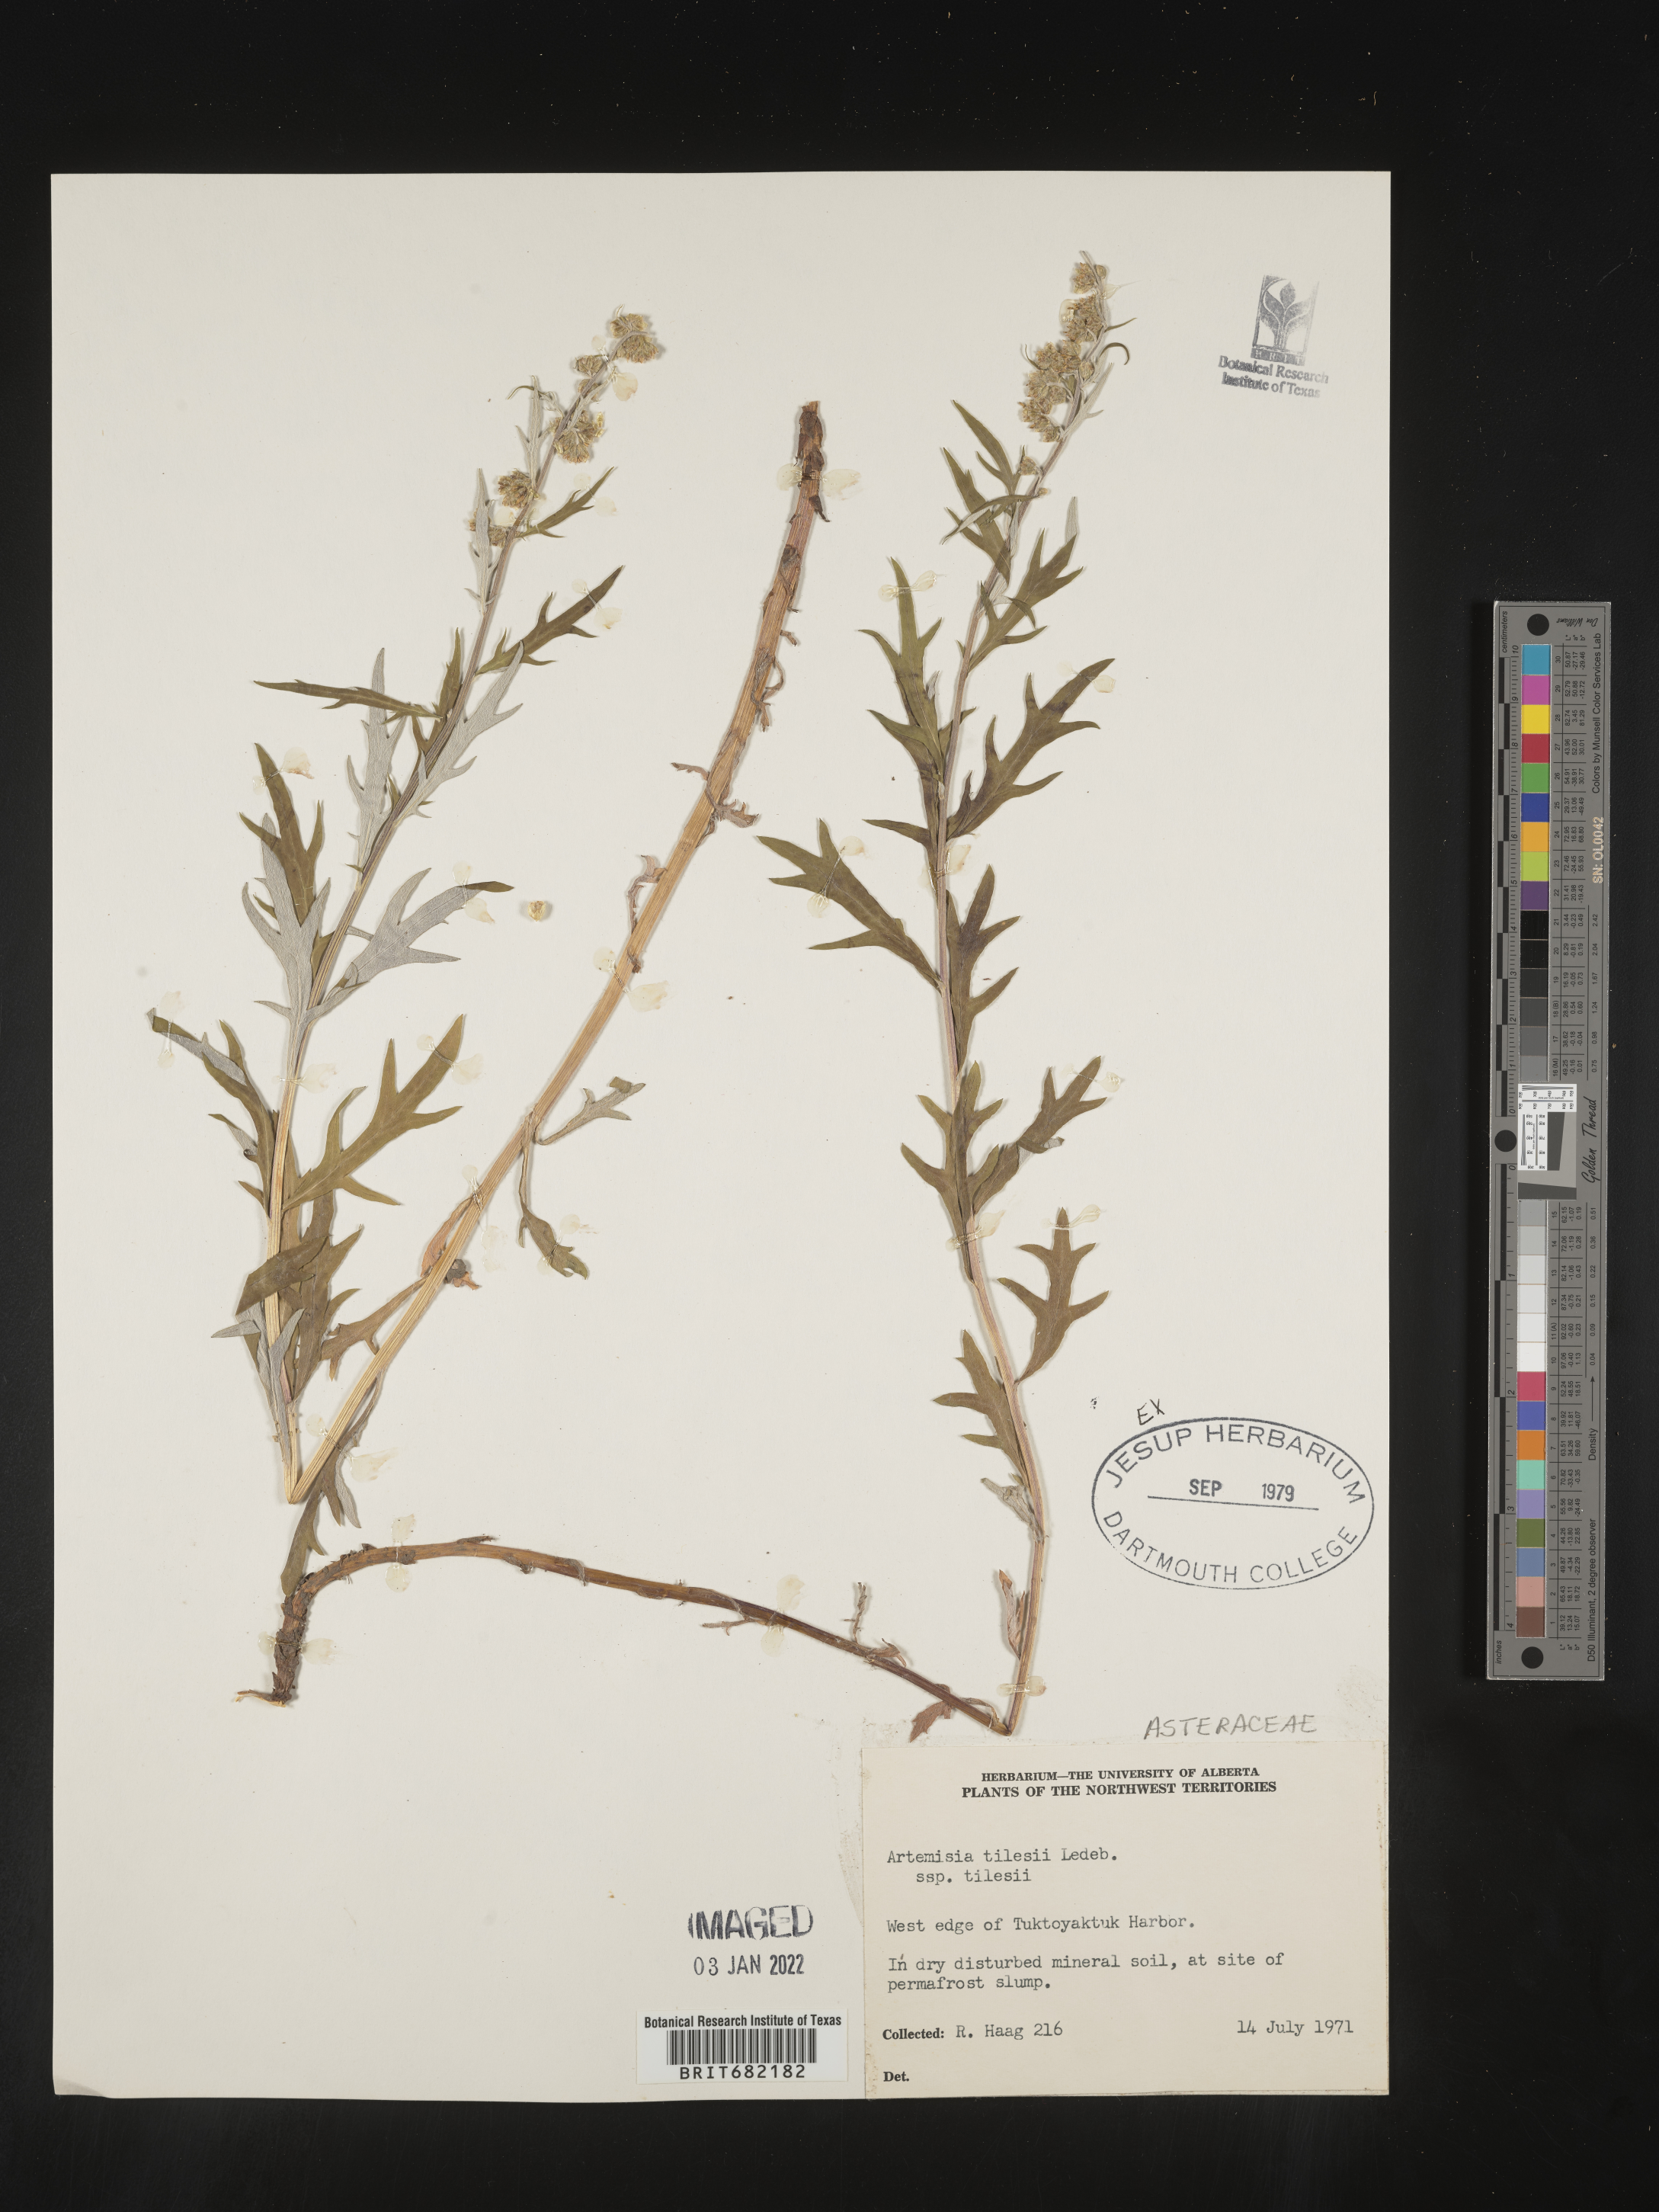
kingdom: Plantae
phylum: Tracheophyta
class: Magnoliopsida
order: Asterales
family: Asteraceae
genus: Artemisia
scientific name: Artemisia tilesii
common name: Aleutian mugwort
